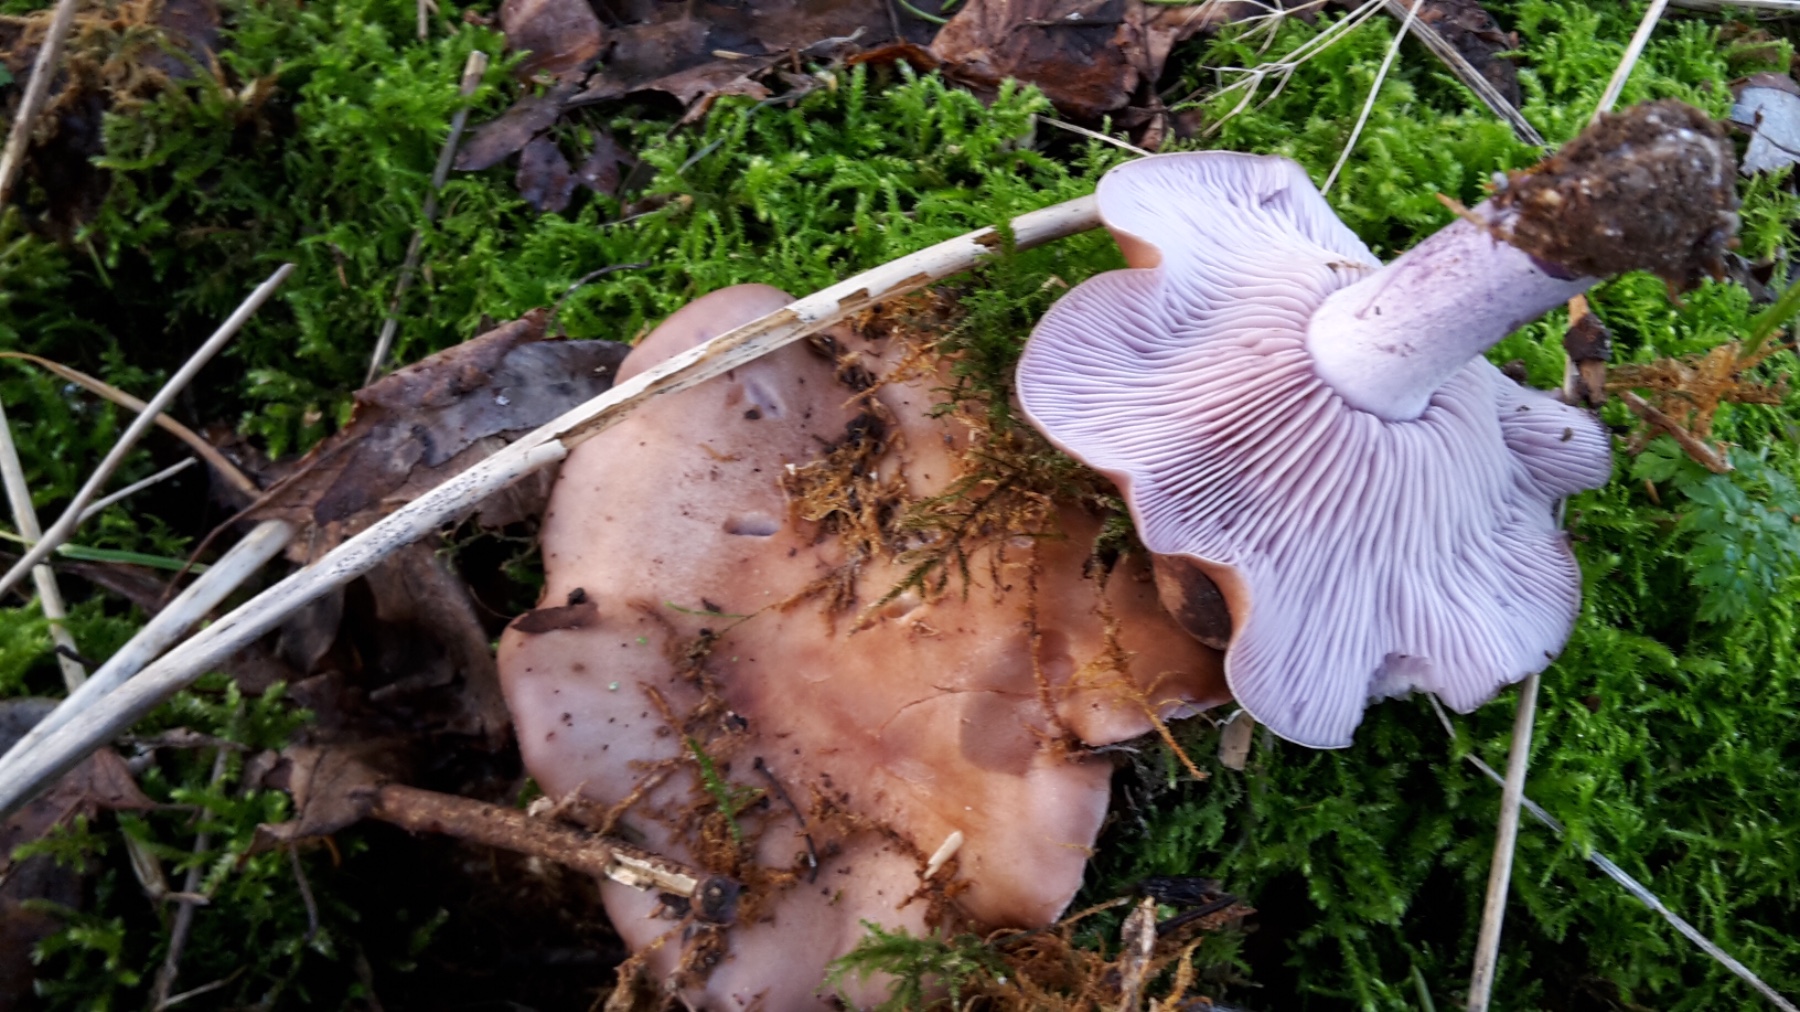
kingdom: Fungi
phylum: Basidiomycota
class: Agaricomycetes
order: Agaricales
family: Tricholomataceae
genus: Lepista
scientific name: Lepista nuda
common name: violet hekseringshat
